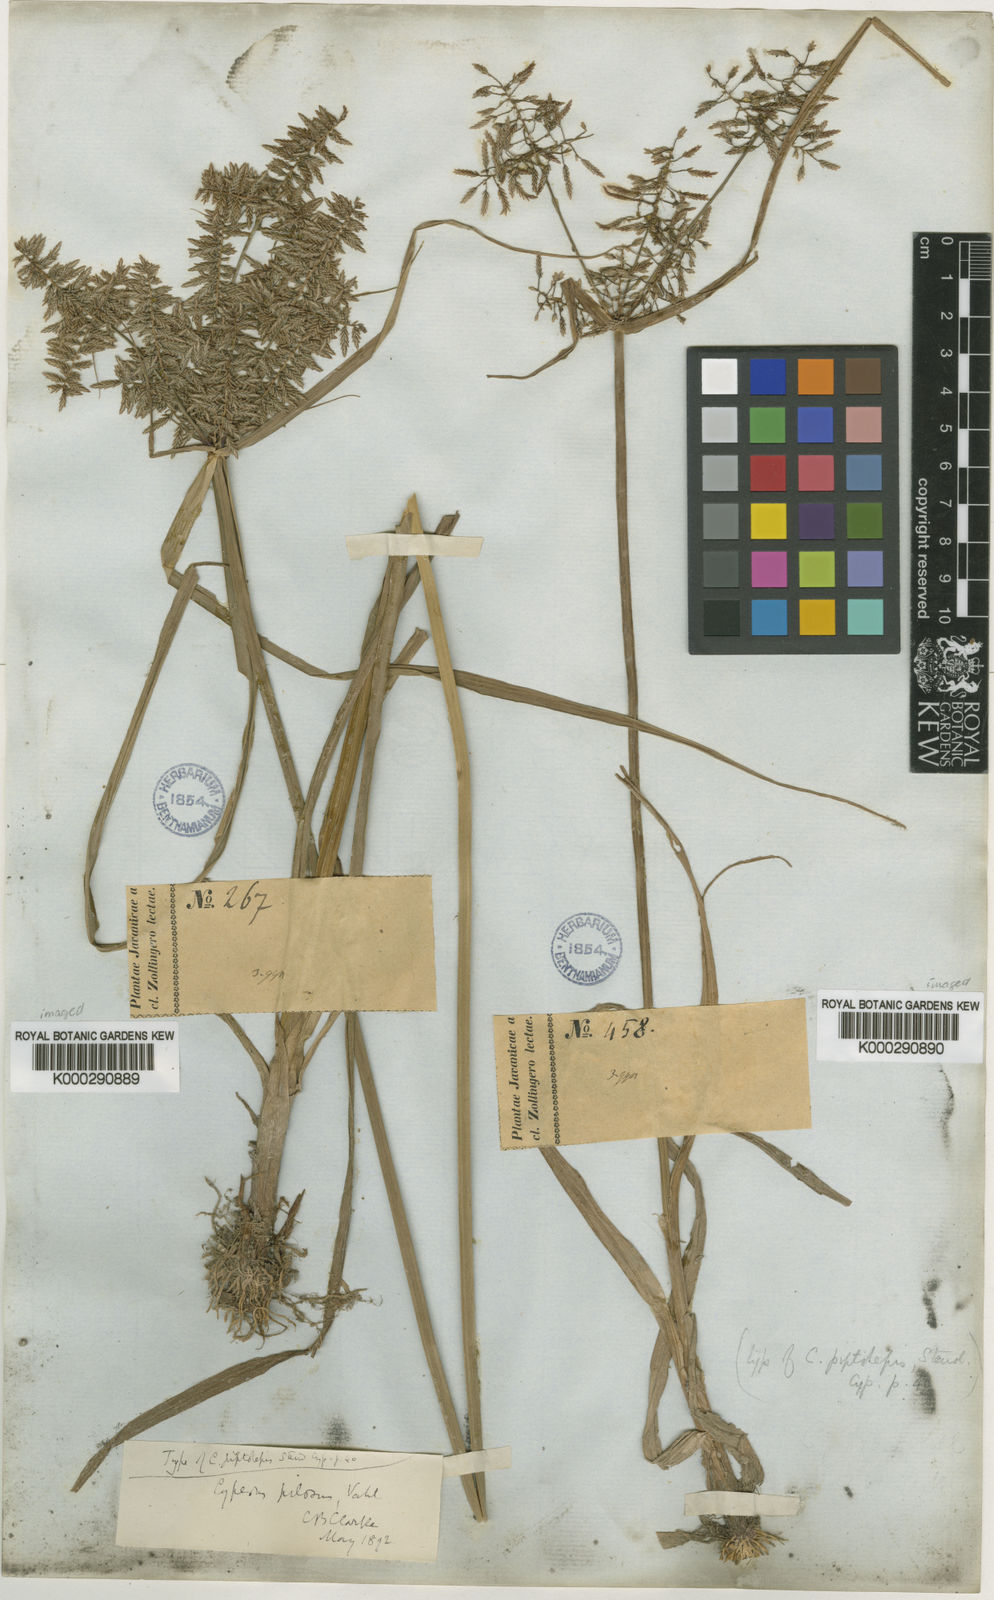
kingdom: Plantae
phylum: Tracheophyta
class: Liliopsida
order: Poales
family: Cyperaceae
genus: Cyperus
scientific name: Cyperus pilosus
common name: Fuzzy flatsedge
